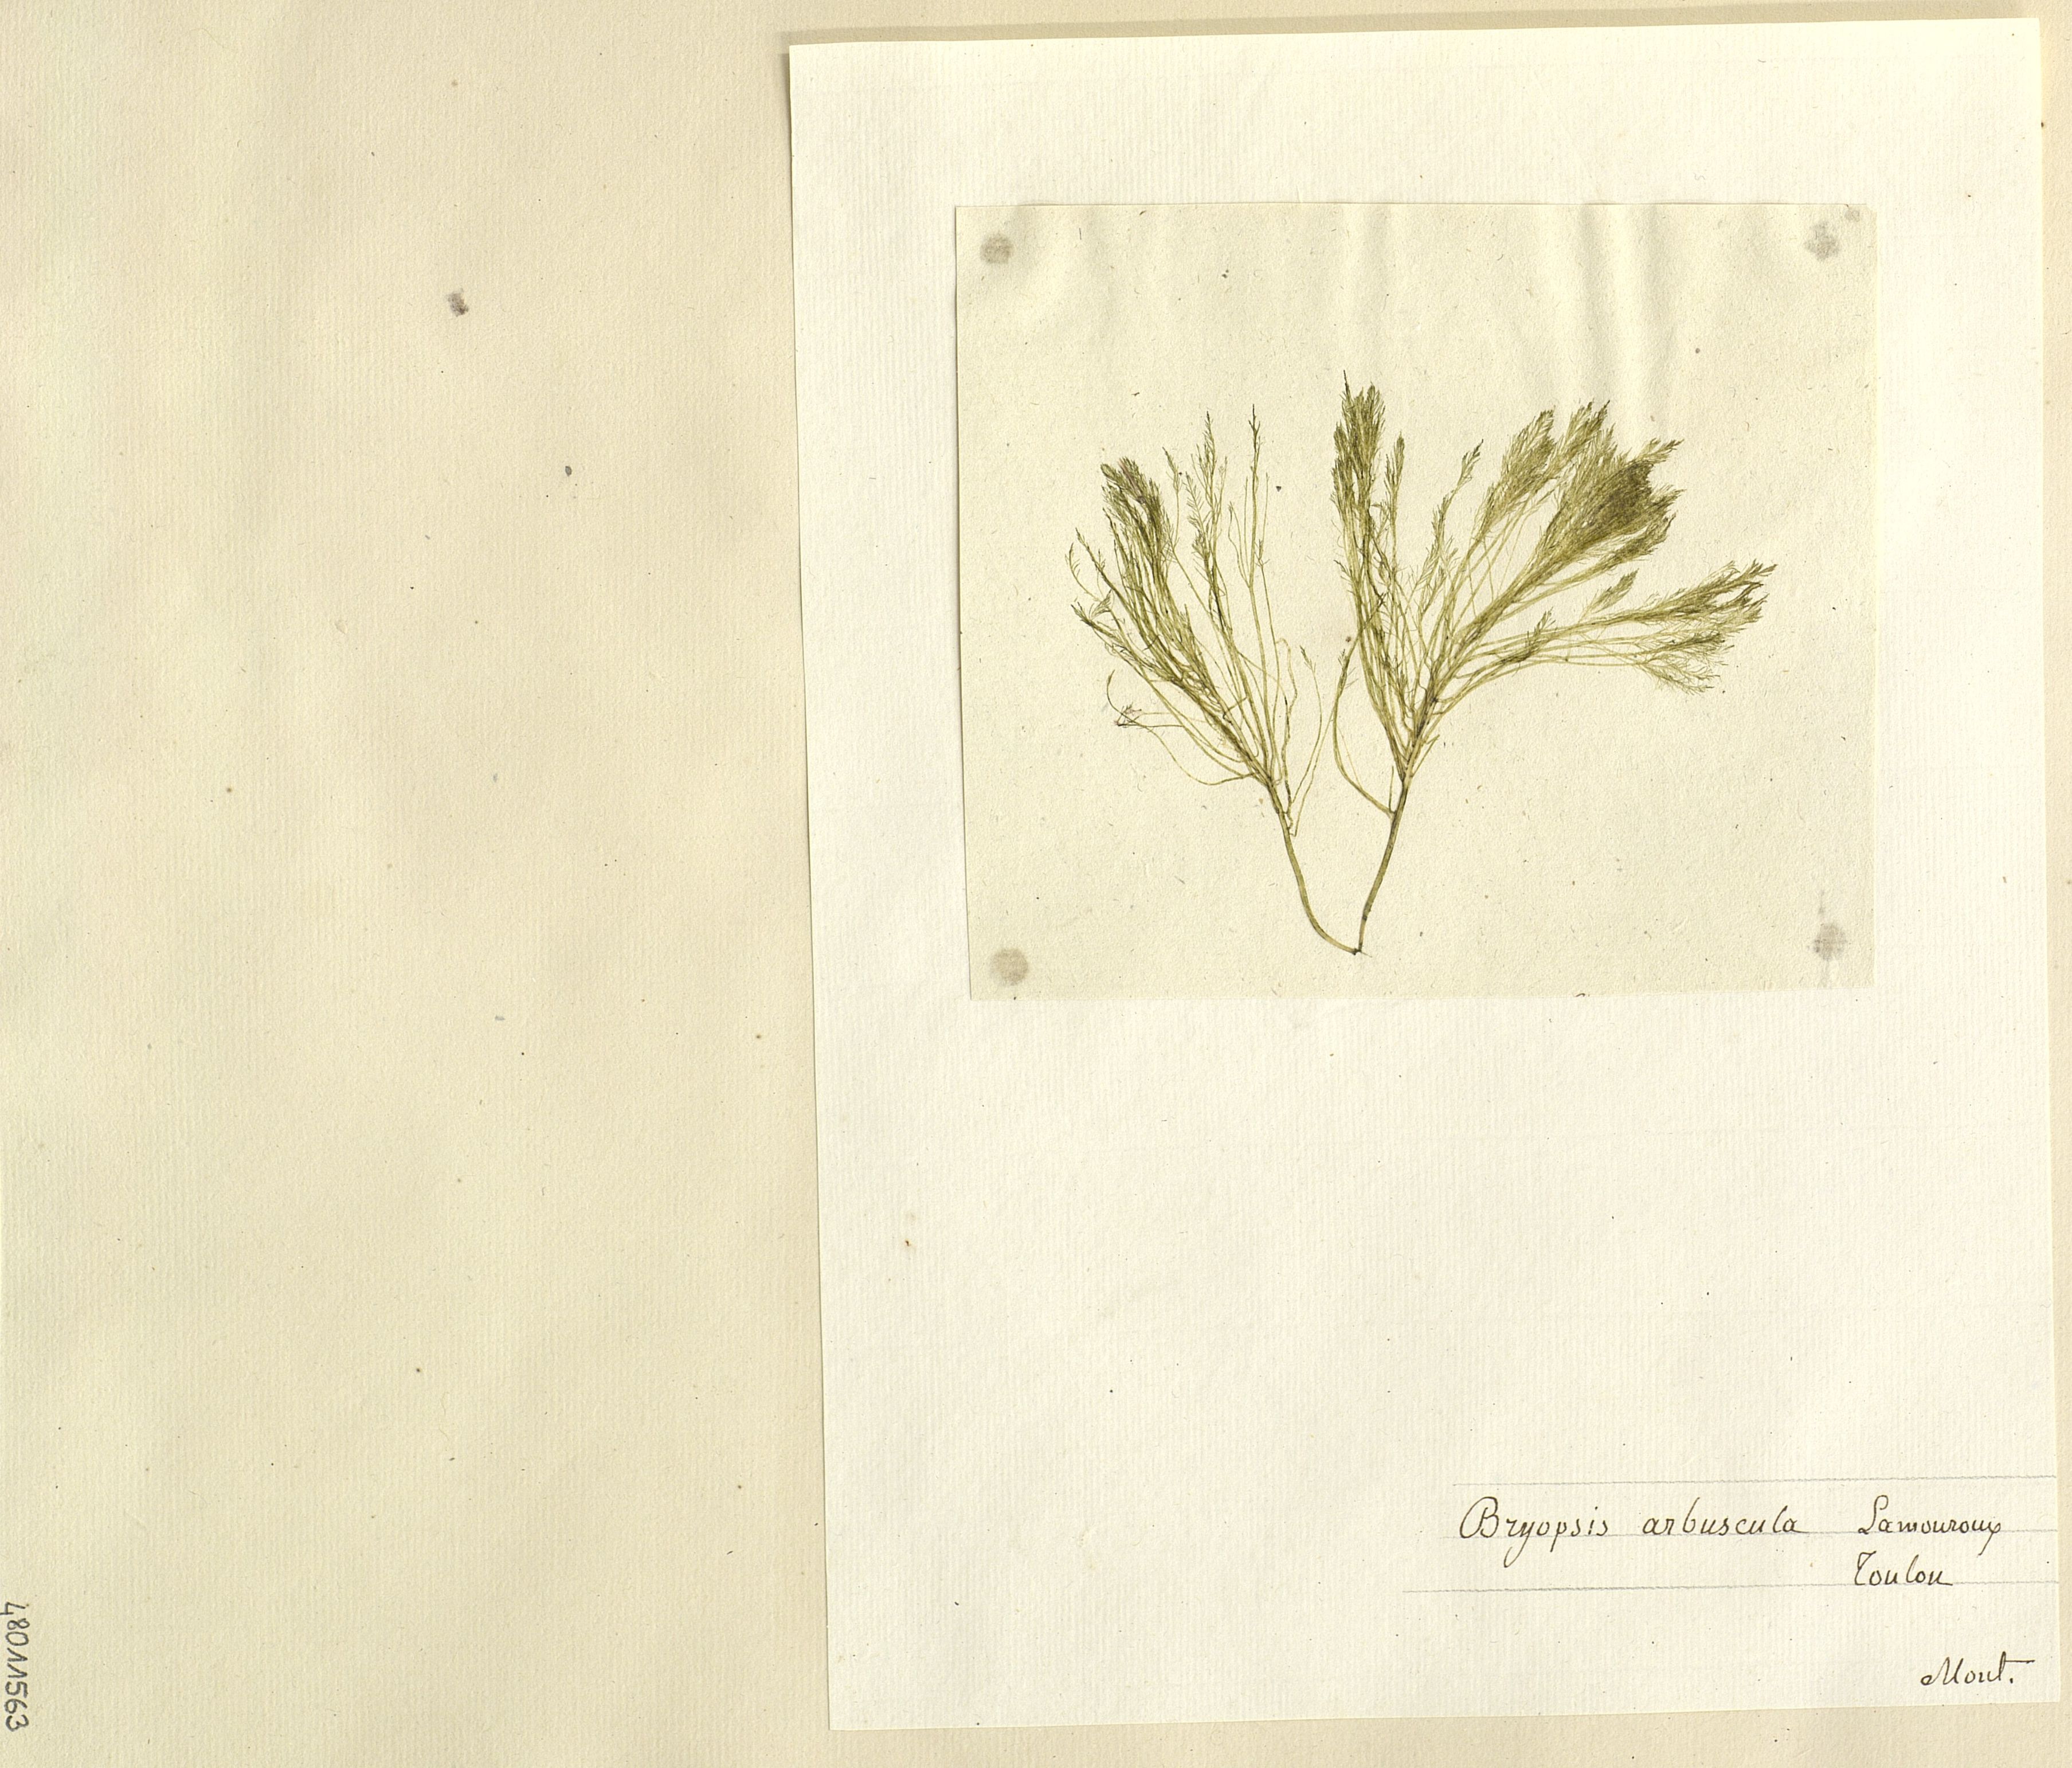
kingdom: Plantae
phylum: Chlorophyta
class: Ulvophyceae
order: Bryopsidales
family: Bryopsidaceae
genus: Bryopsis
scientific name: Bryopsis plumosa
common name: Hen pen
